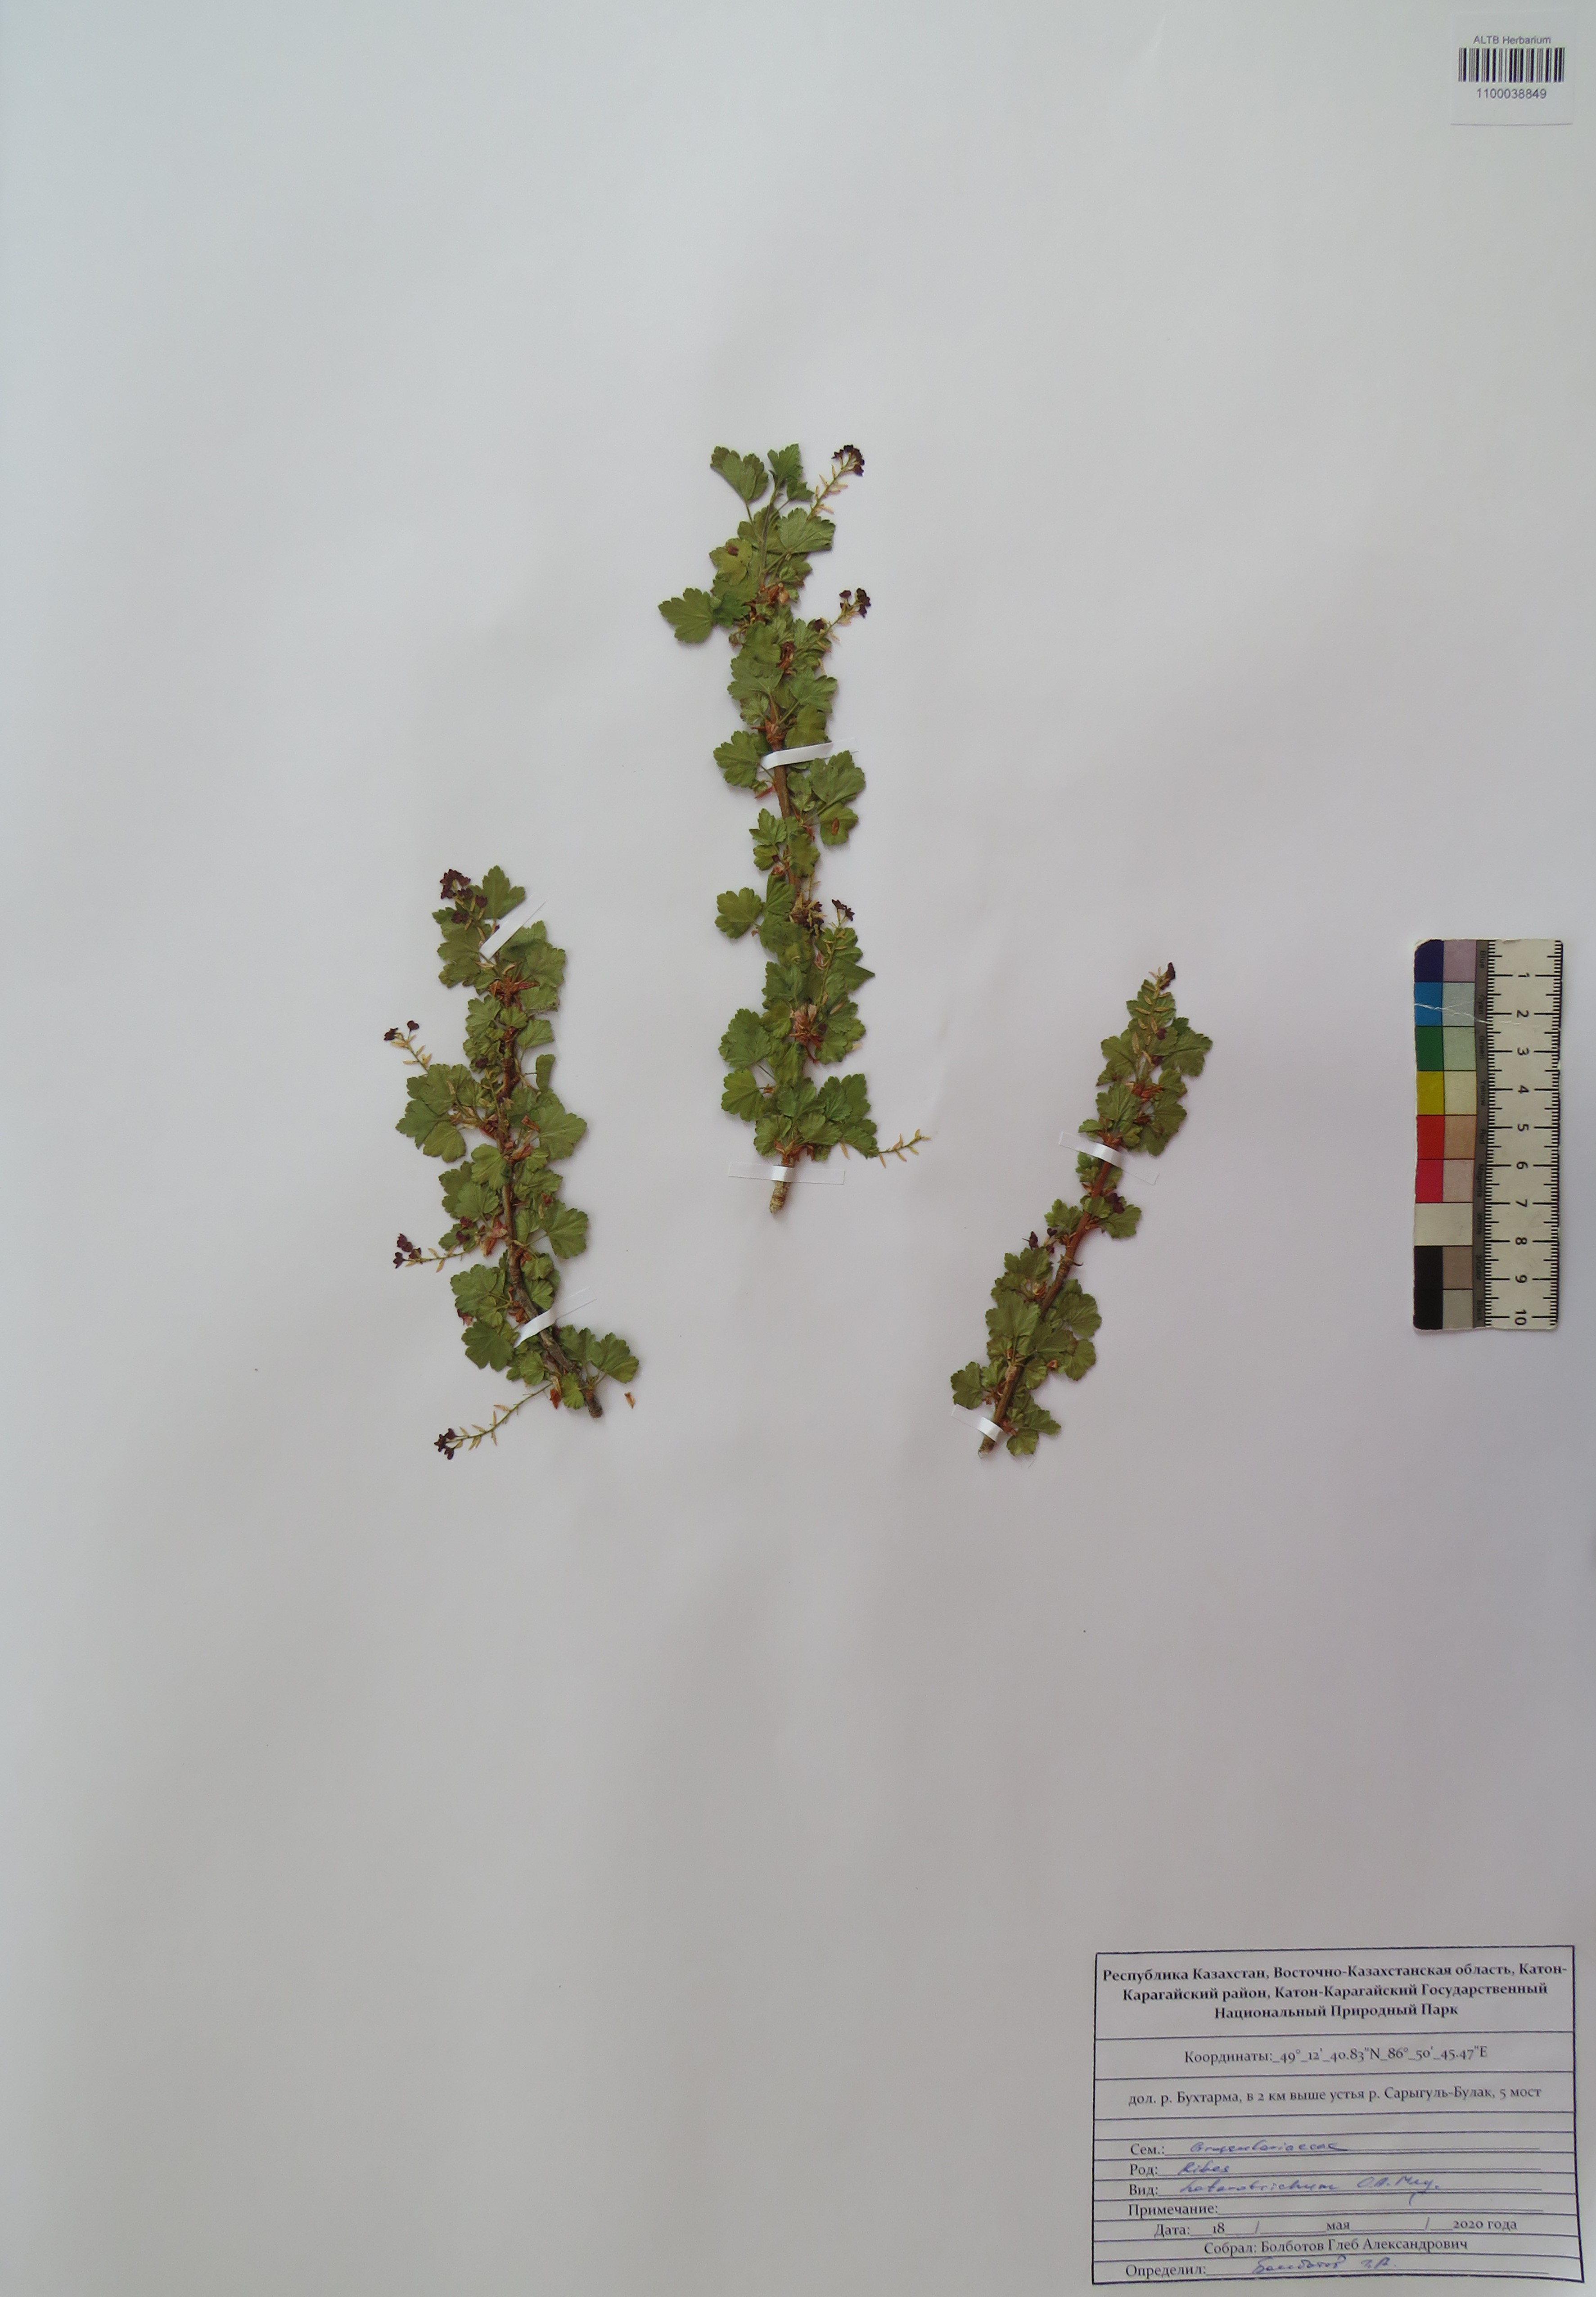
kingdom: Plantae
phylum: Tracheophyta
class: Magnoliopsida
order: Saxifragales
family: Grossulariaceae
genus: Ribes
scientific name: Ribes heterotrichum
